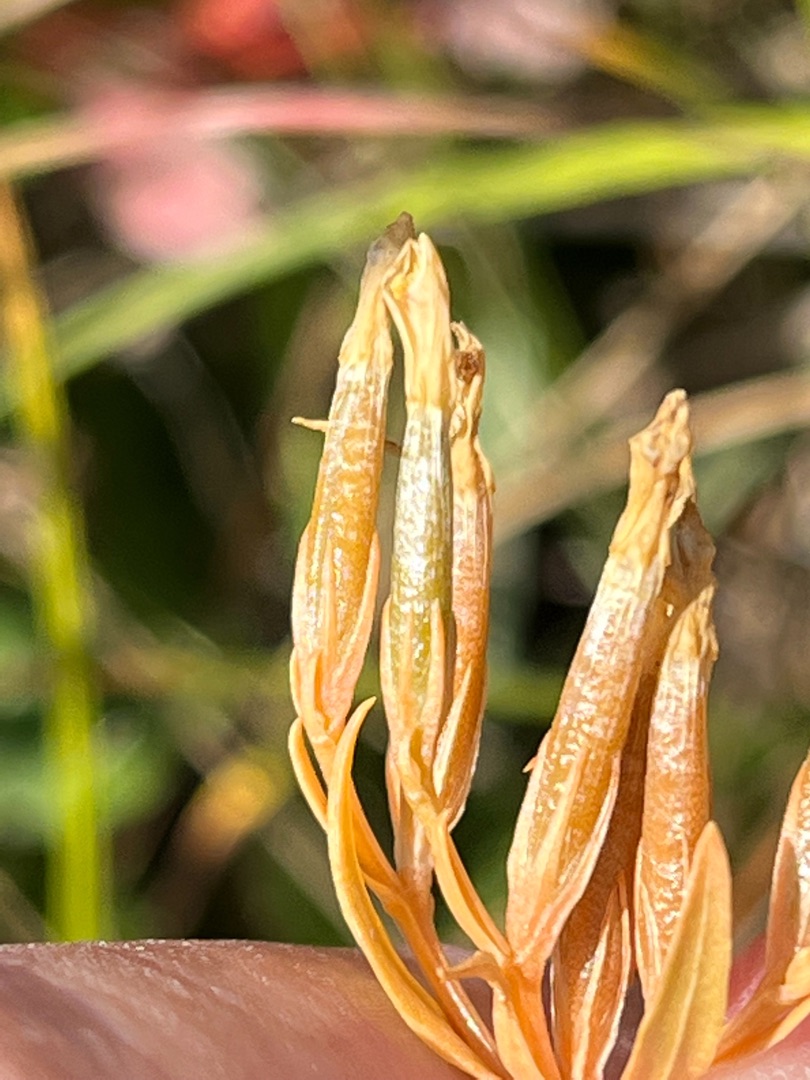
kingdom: Plantae
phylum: Tracheophyta
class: Magnoliopsida
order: Gentianales
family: Gentianaceae
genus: Centaurium
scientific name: Centaurium erythraea
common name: Mark-tusindgylden
